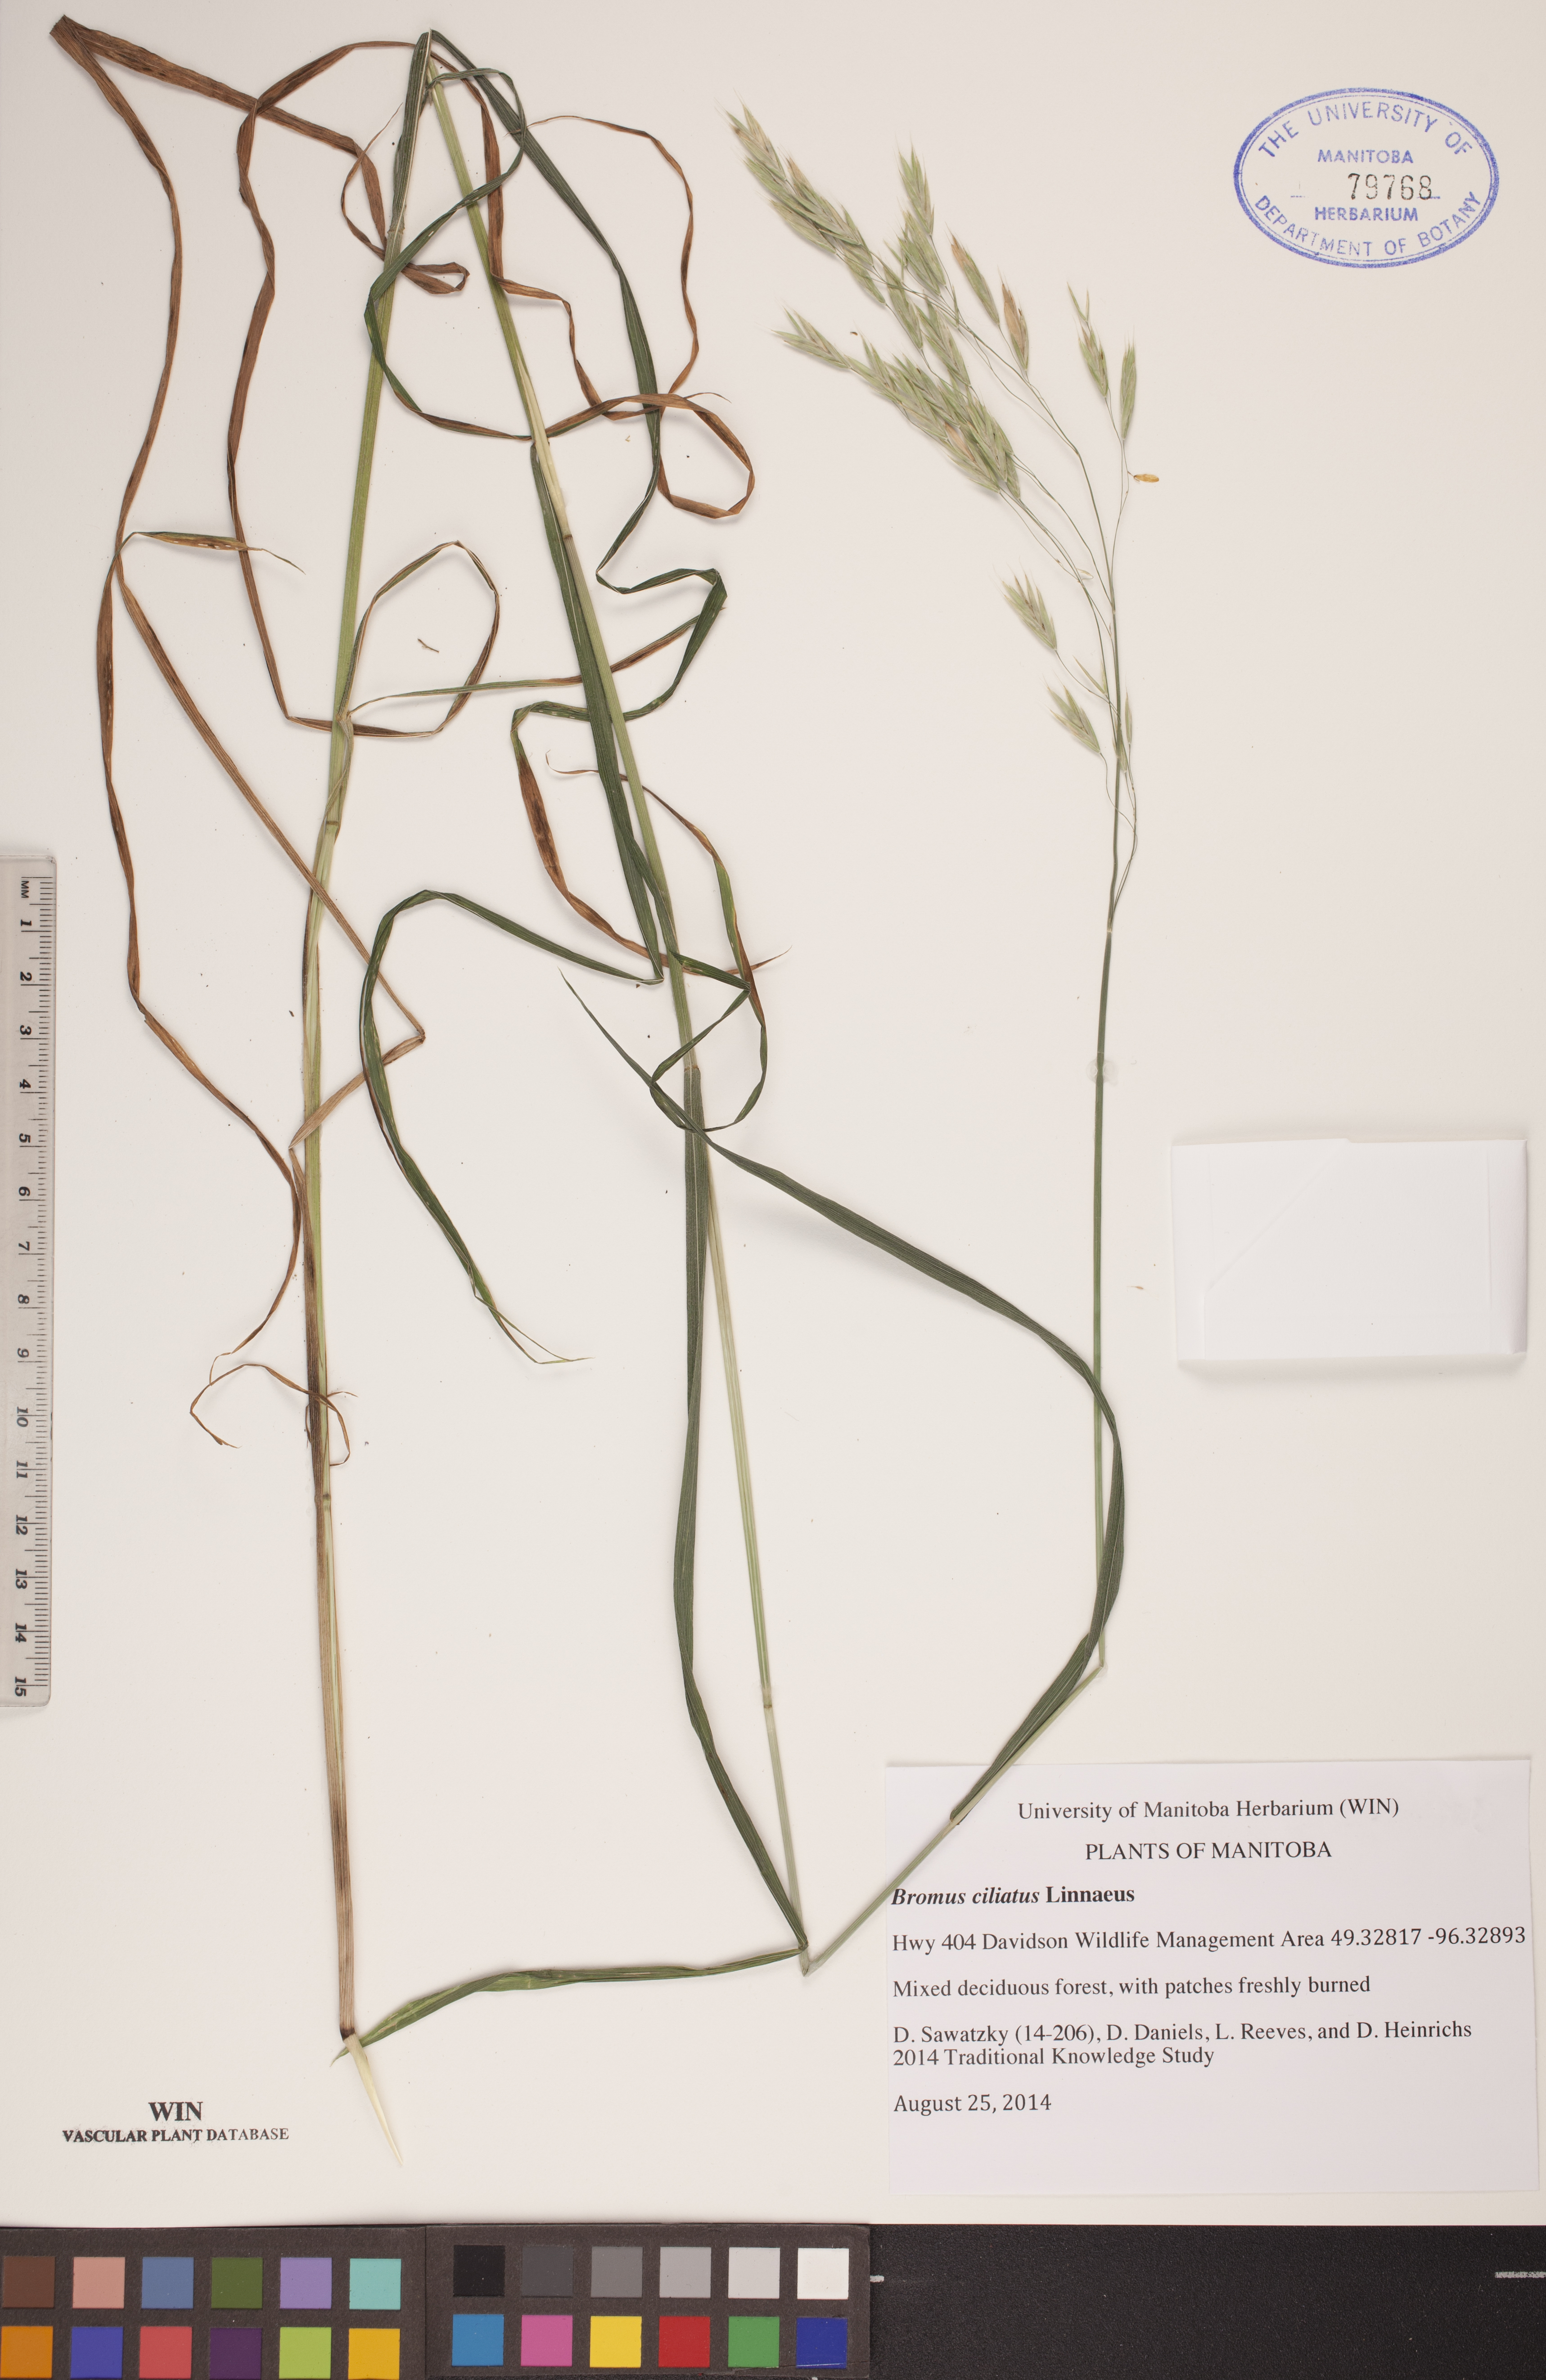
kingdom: Plantae
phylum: Tracheophyta
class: Liliopsida
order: Poales
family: Poaceae
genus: Bromus
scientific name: Bromus ciliatus
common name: Fringe brome
